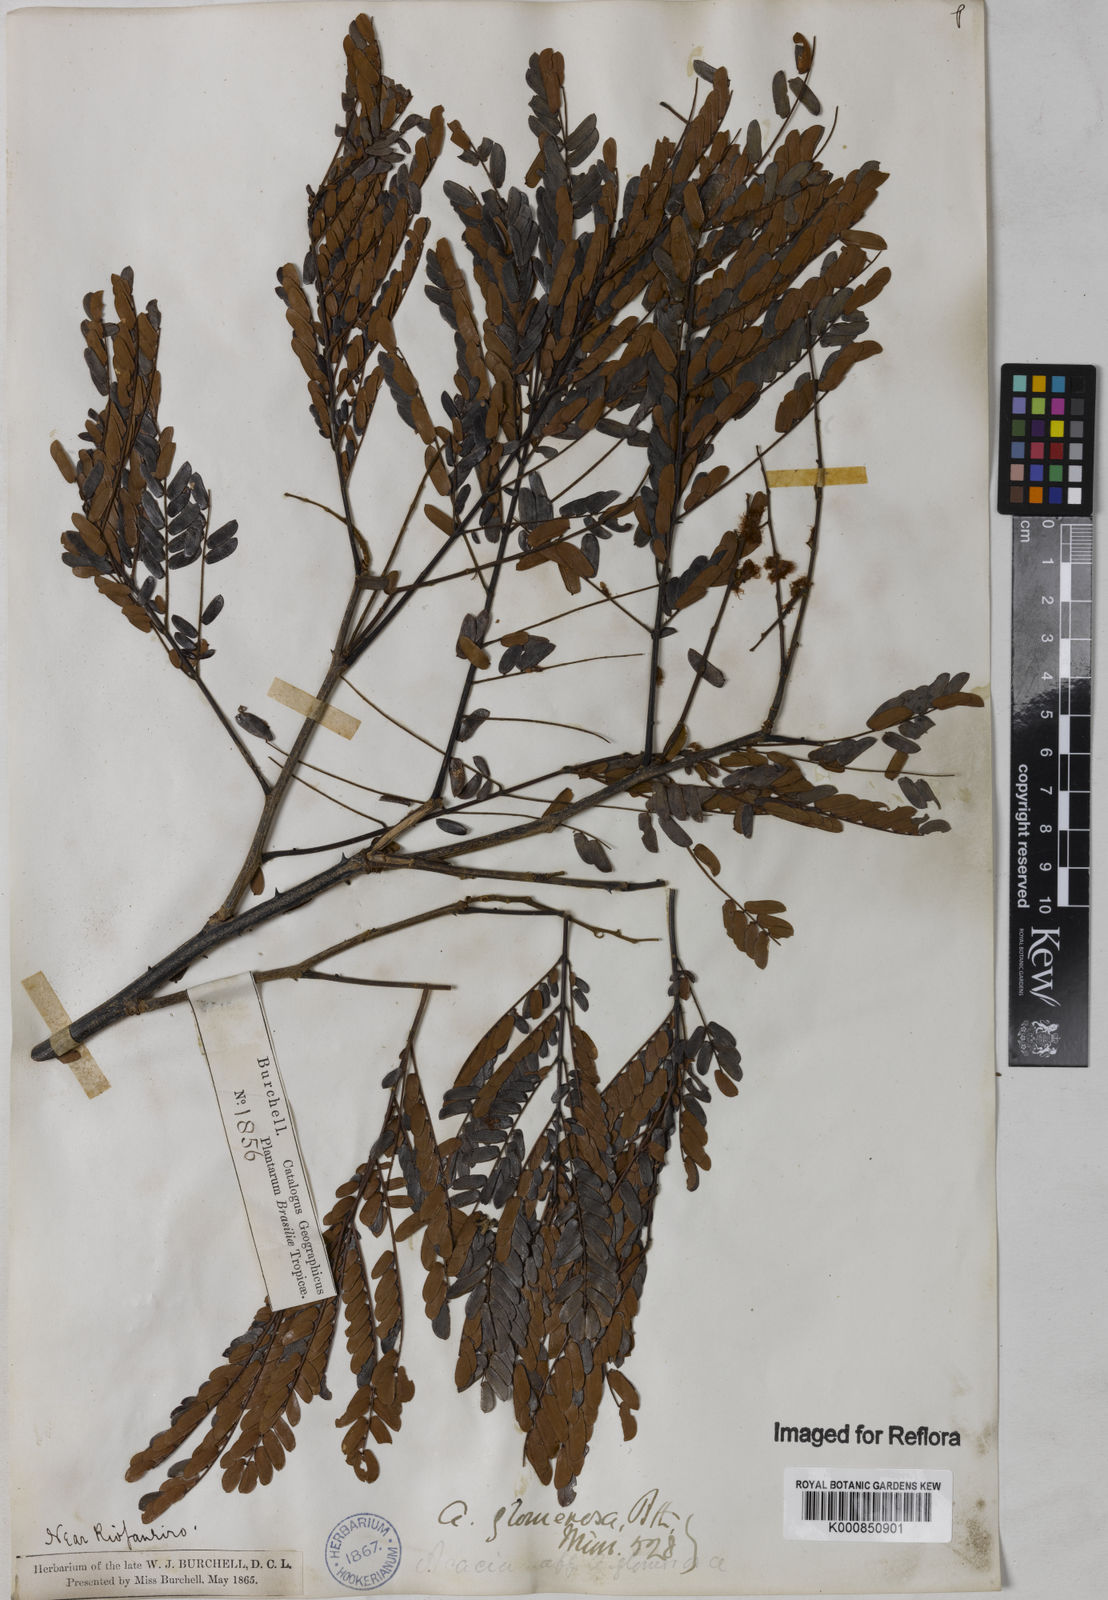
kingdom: Plantae
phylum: Tracheophyta
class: Magnoliopsida
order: Fabales
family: Fabaceae
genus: Senegalia
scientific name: Senegalia polyphylla
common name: White-tamarind
